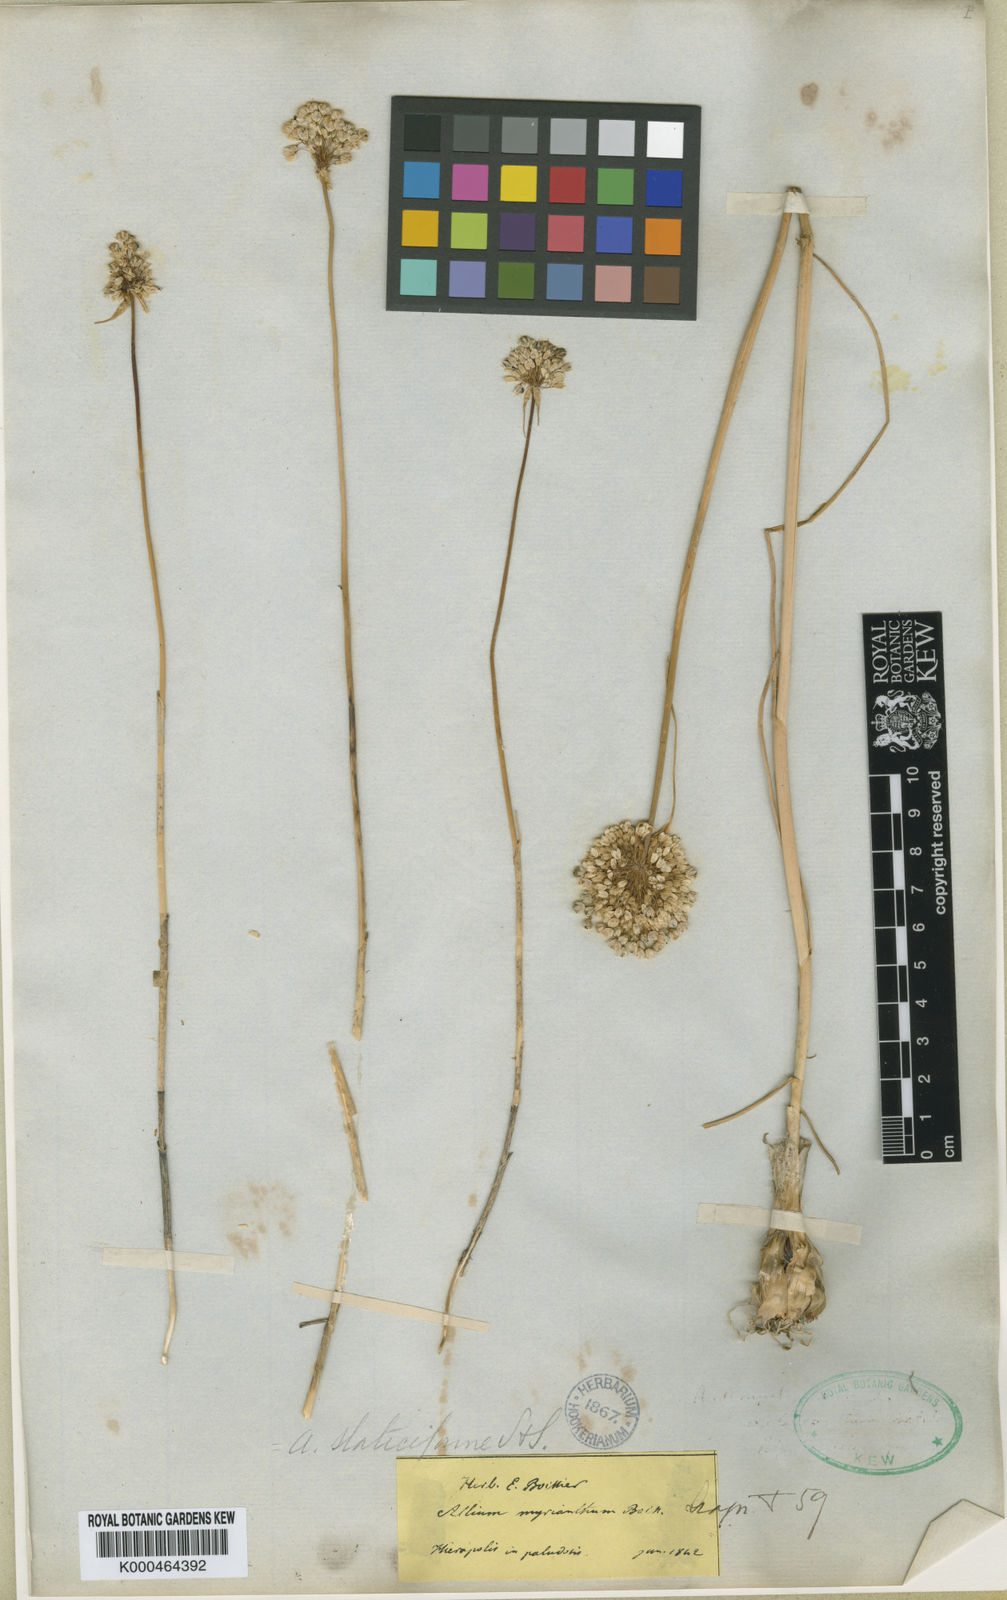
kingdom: Plantae
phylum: Tracheophyta
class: Liliopsida
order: Asparagales
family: Amaryllidaceae
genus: Allium
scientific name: Allium myrianthum
